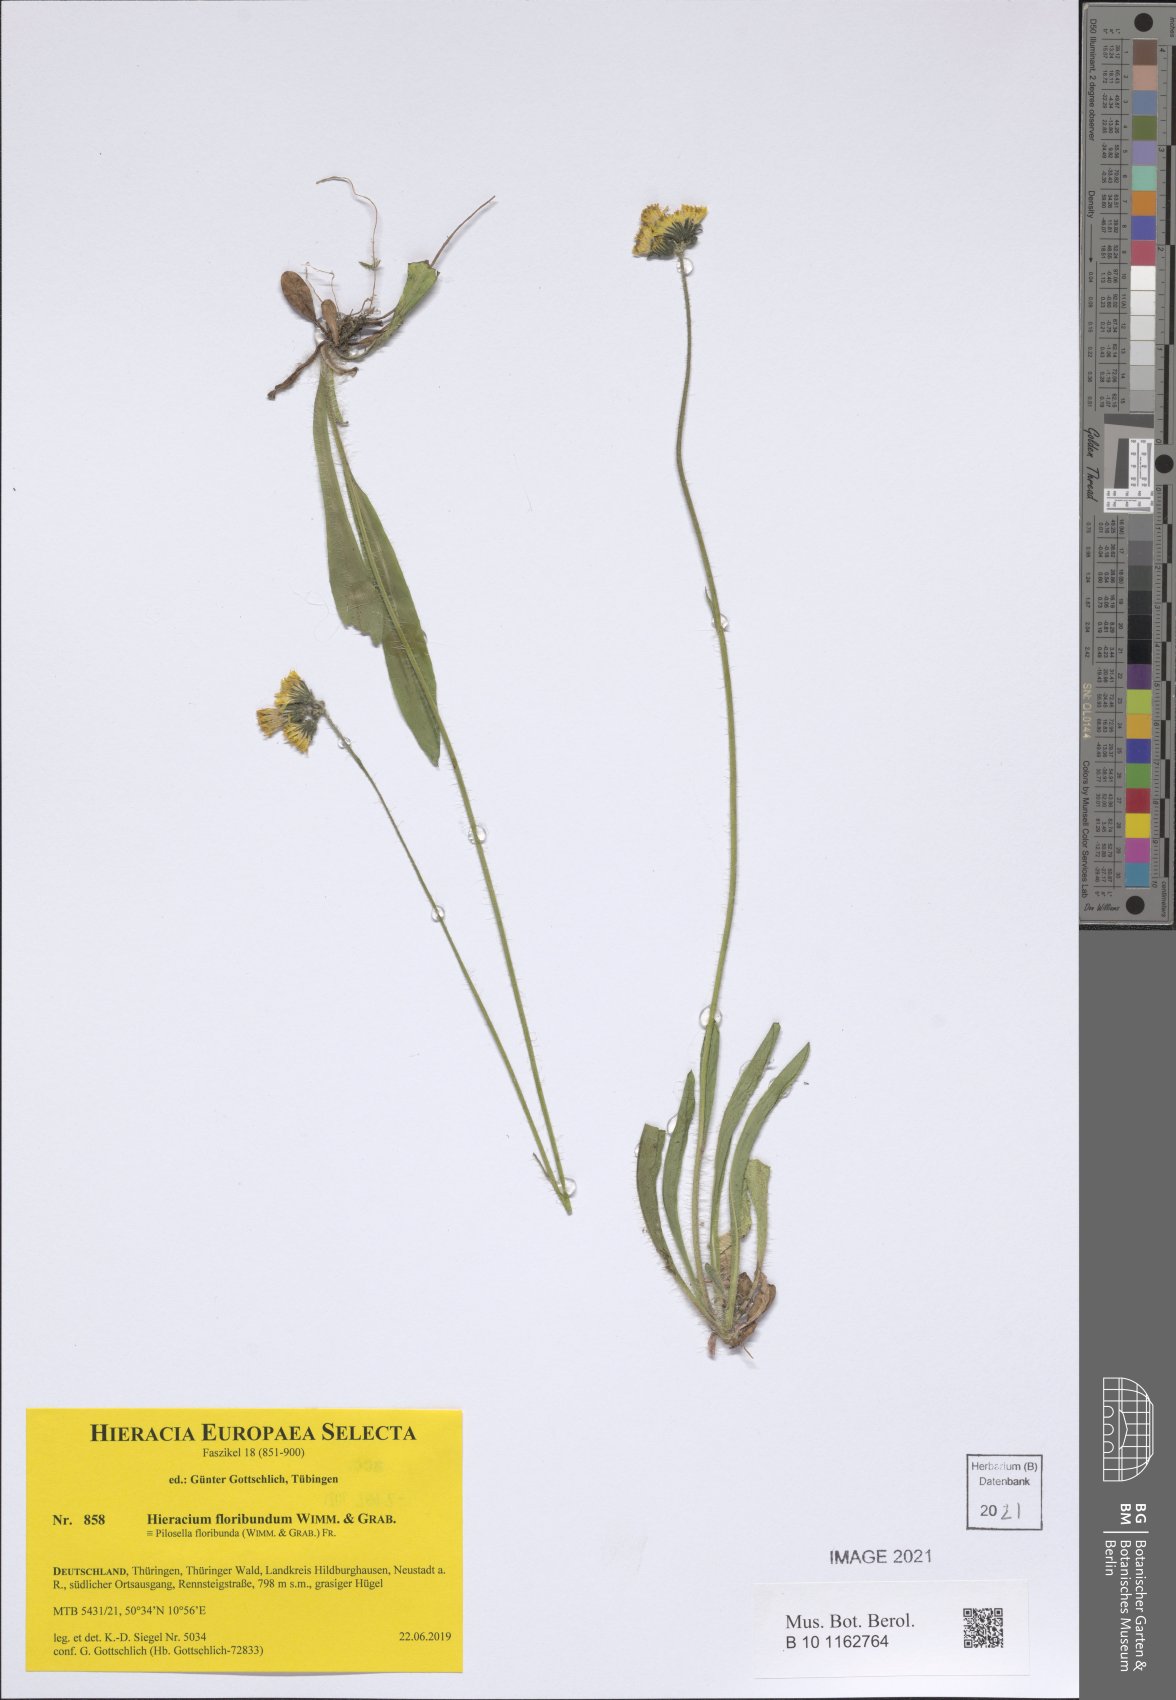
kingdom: Plantae
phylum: Tracheophyta
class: Magnoliopsida
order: Asterales
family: Asteraceae
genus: Pilosella
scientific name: Pilosella floribunda
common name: Glaucous hawkweed
